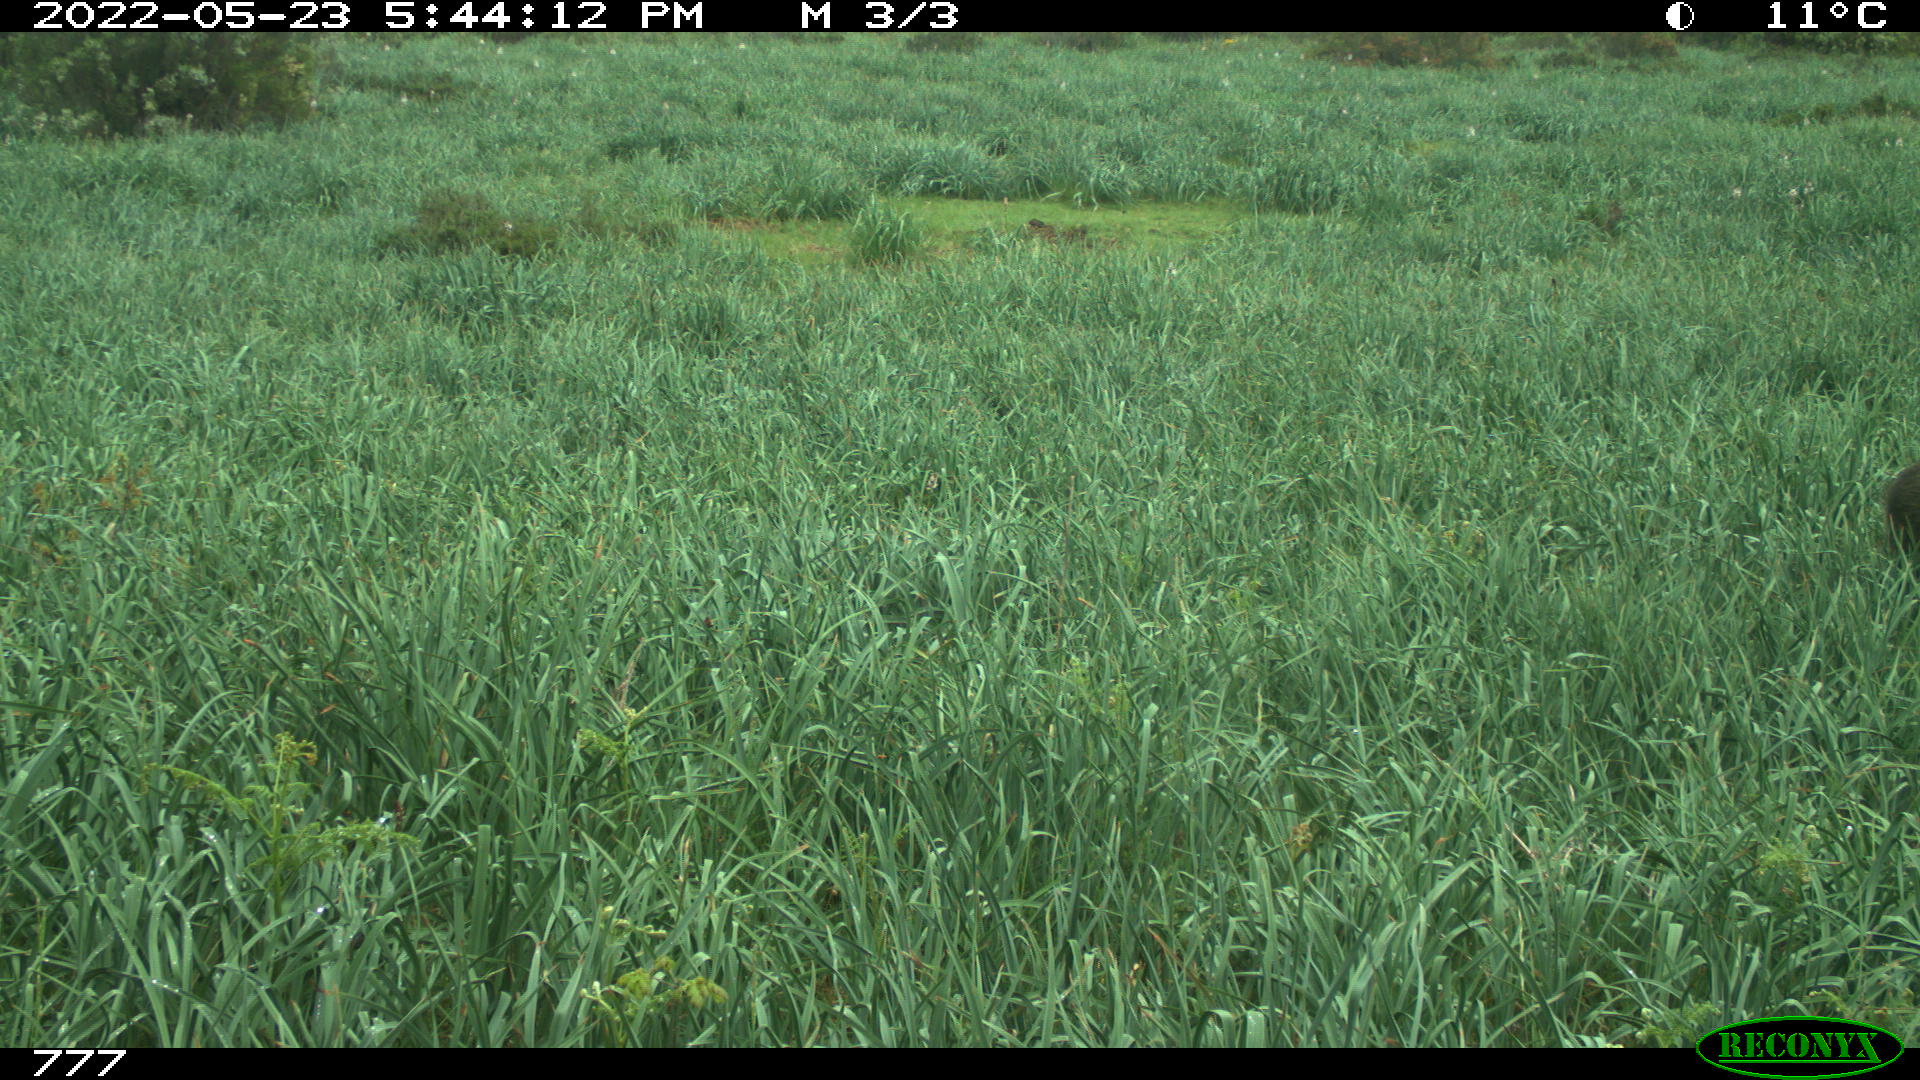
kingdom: Animalia
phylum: Chordata
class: Mammalia
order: Artiodactyla
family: Suidae
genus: Sus
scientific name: Sus scrofa
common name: Wild boar
